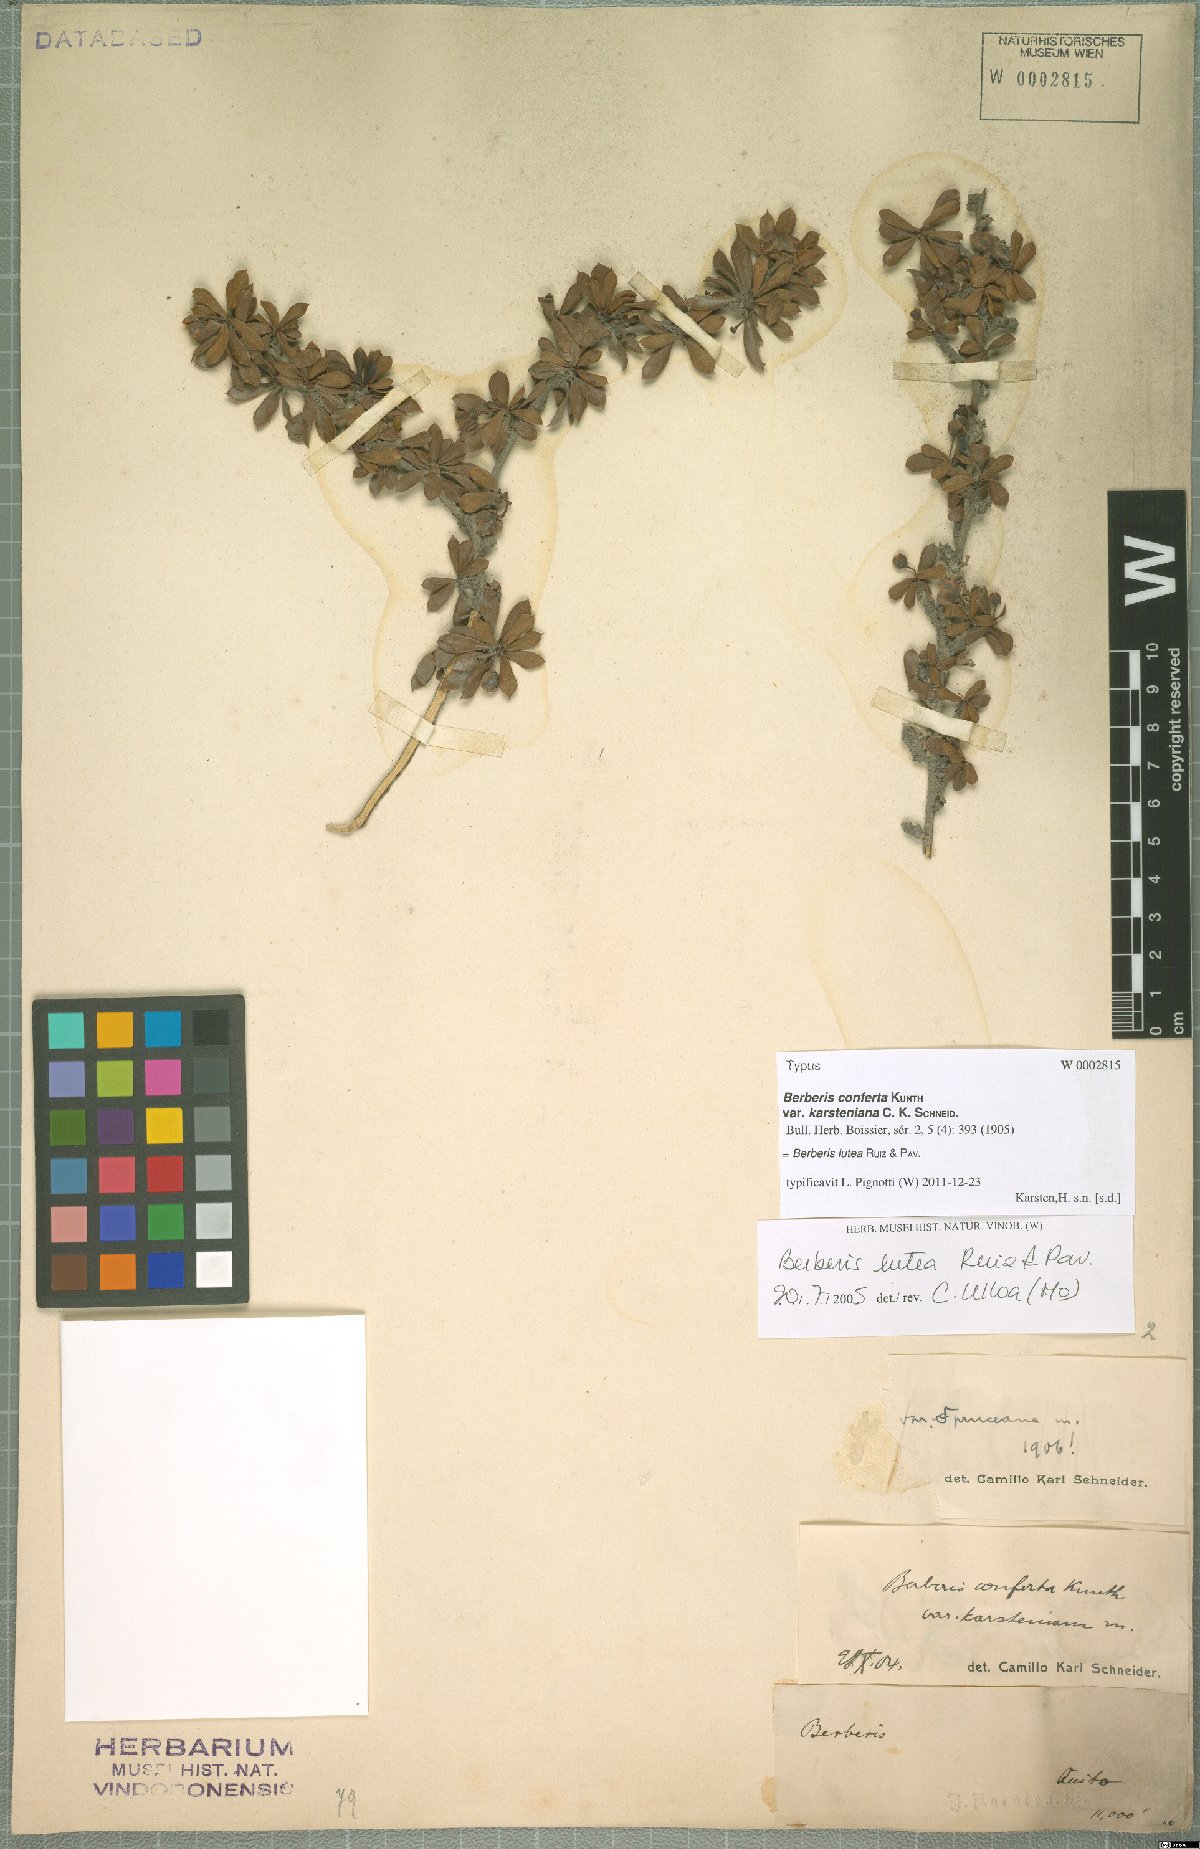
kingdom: Plantae
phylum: Tracheophyta
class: Magnoliopsida
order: Ranunculales
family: Berberidaceae
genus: Berberis
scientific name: Berberis lutea
